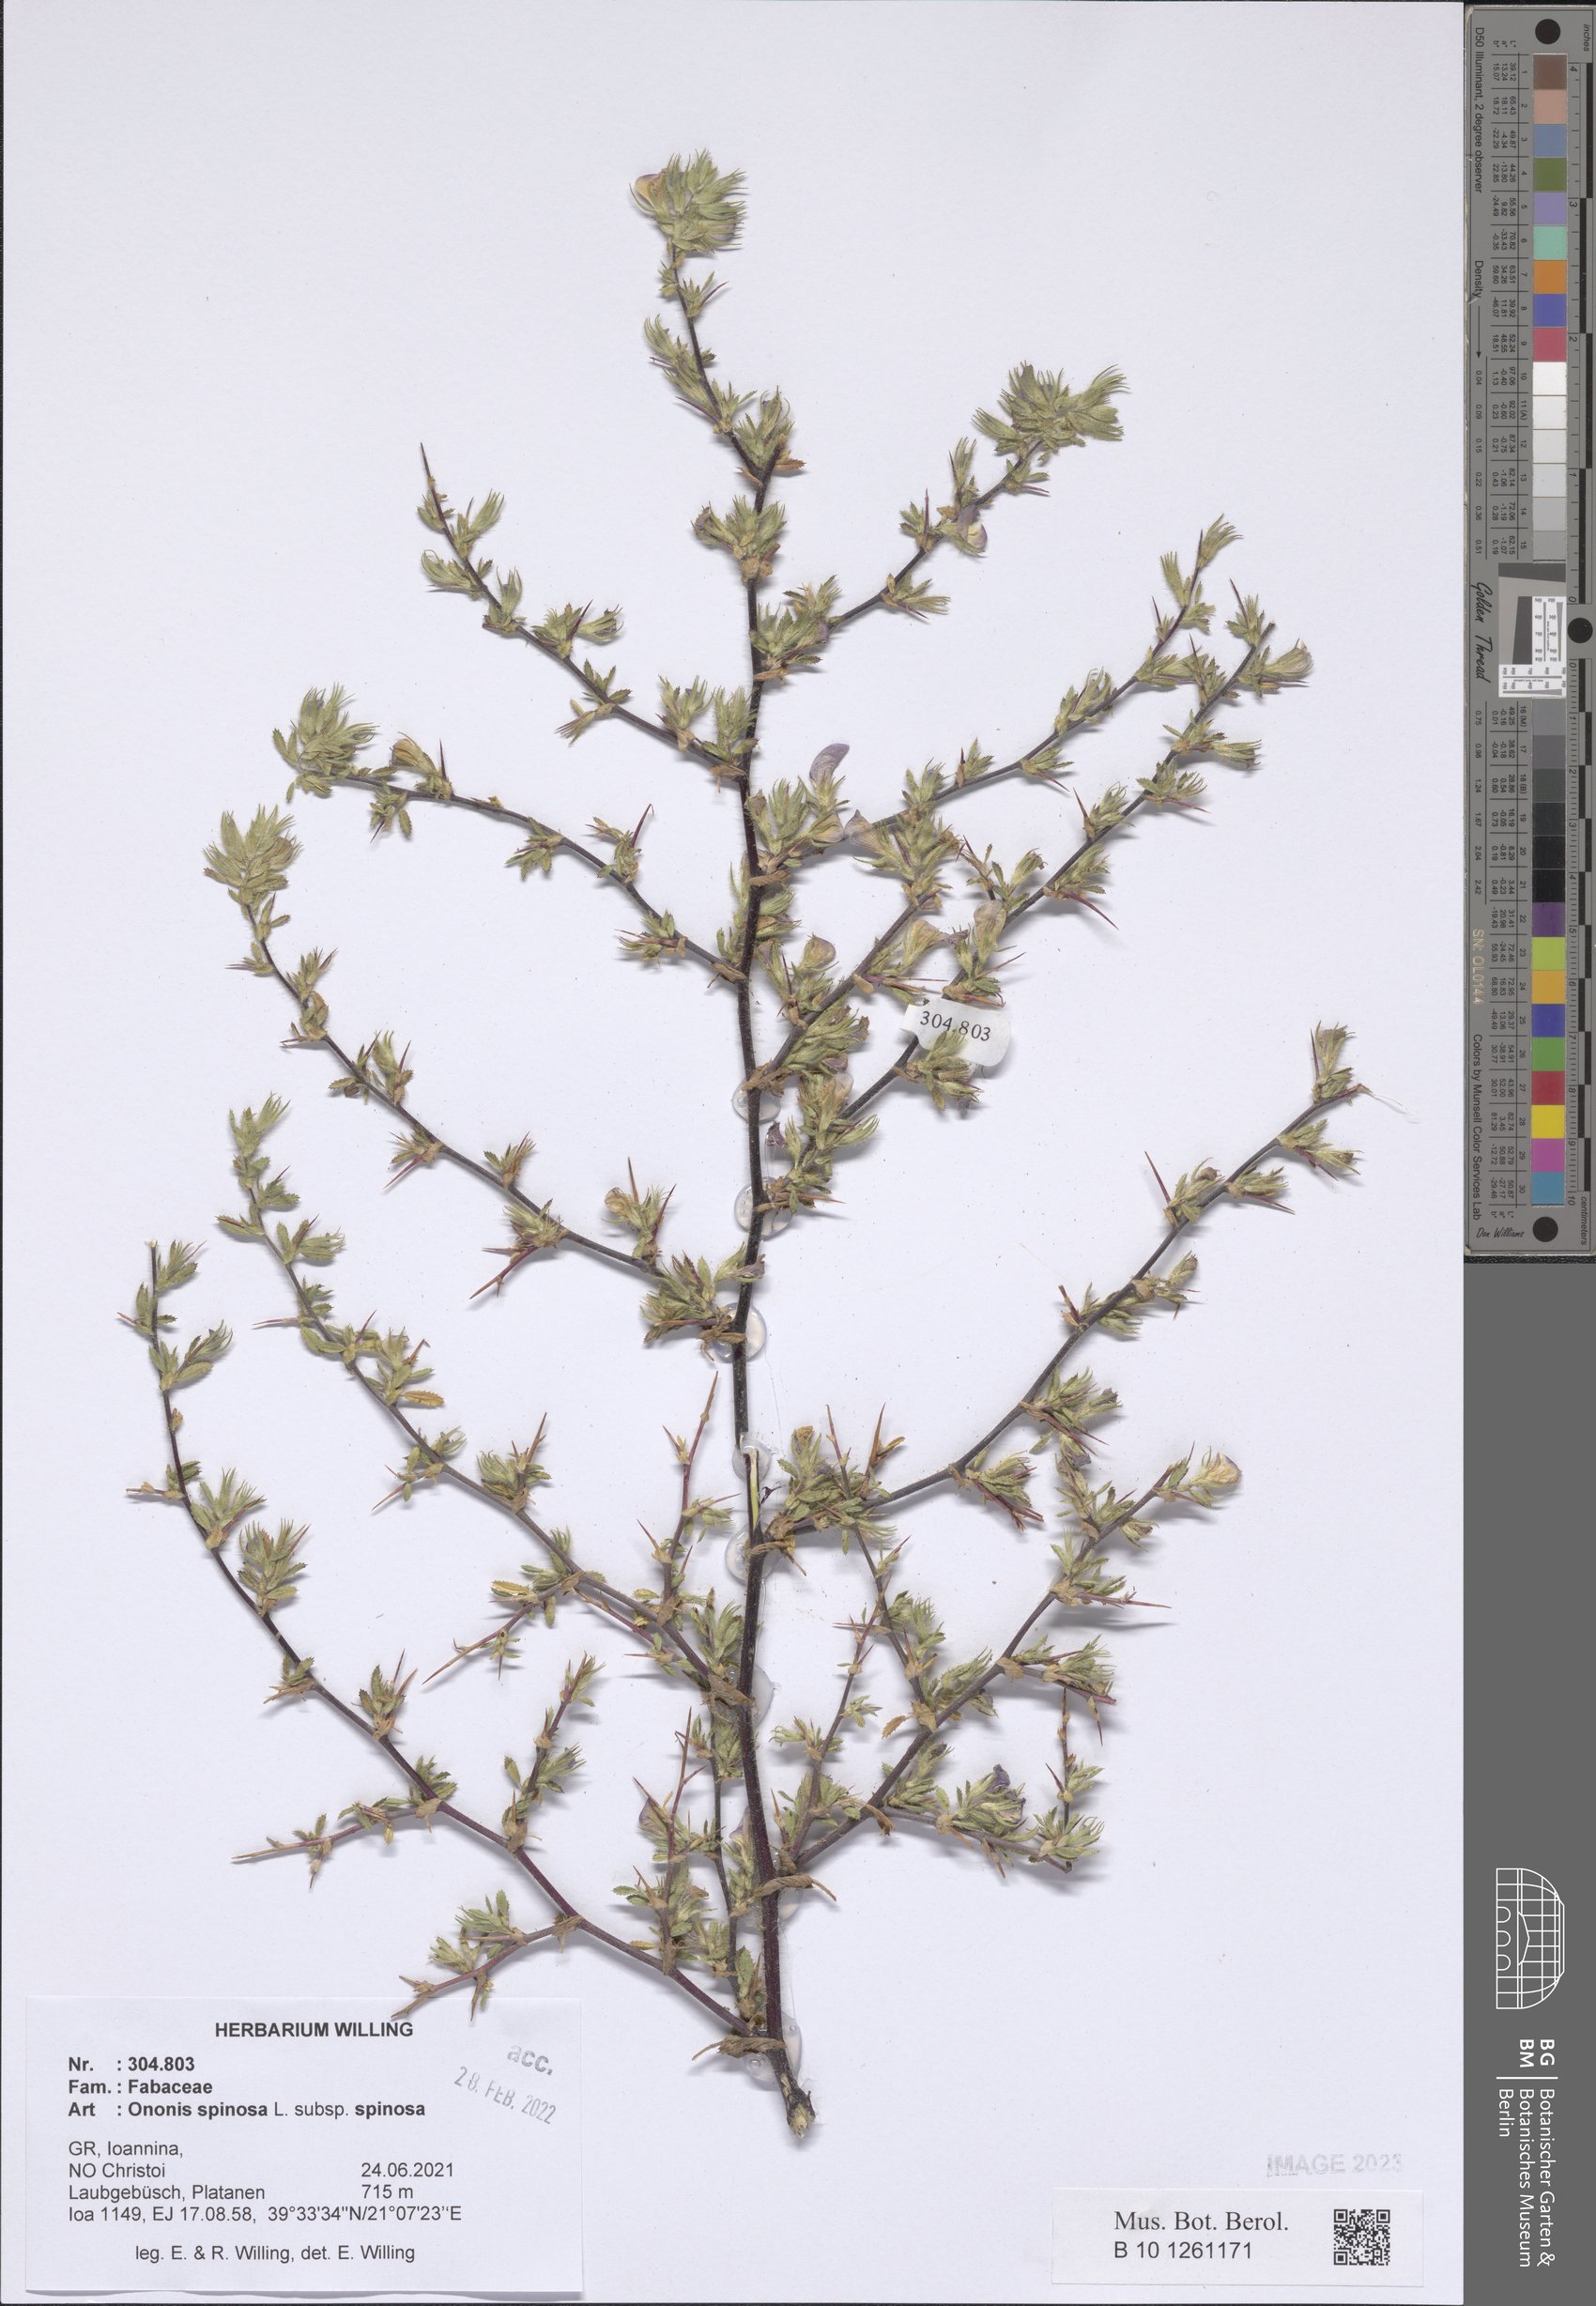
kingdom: Plantae
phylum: Tracheophyta
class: Magnoliopsida
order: Fabales
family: Fabaceae
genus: Ononis
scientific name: Ononis spinosa
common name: Spiny restharrow
